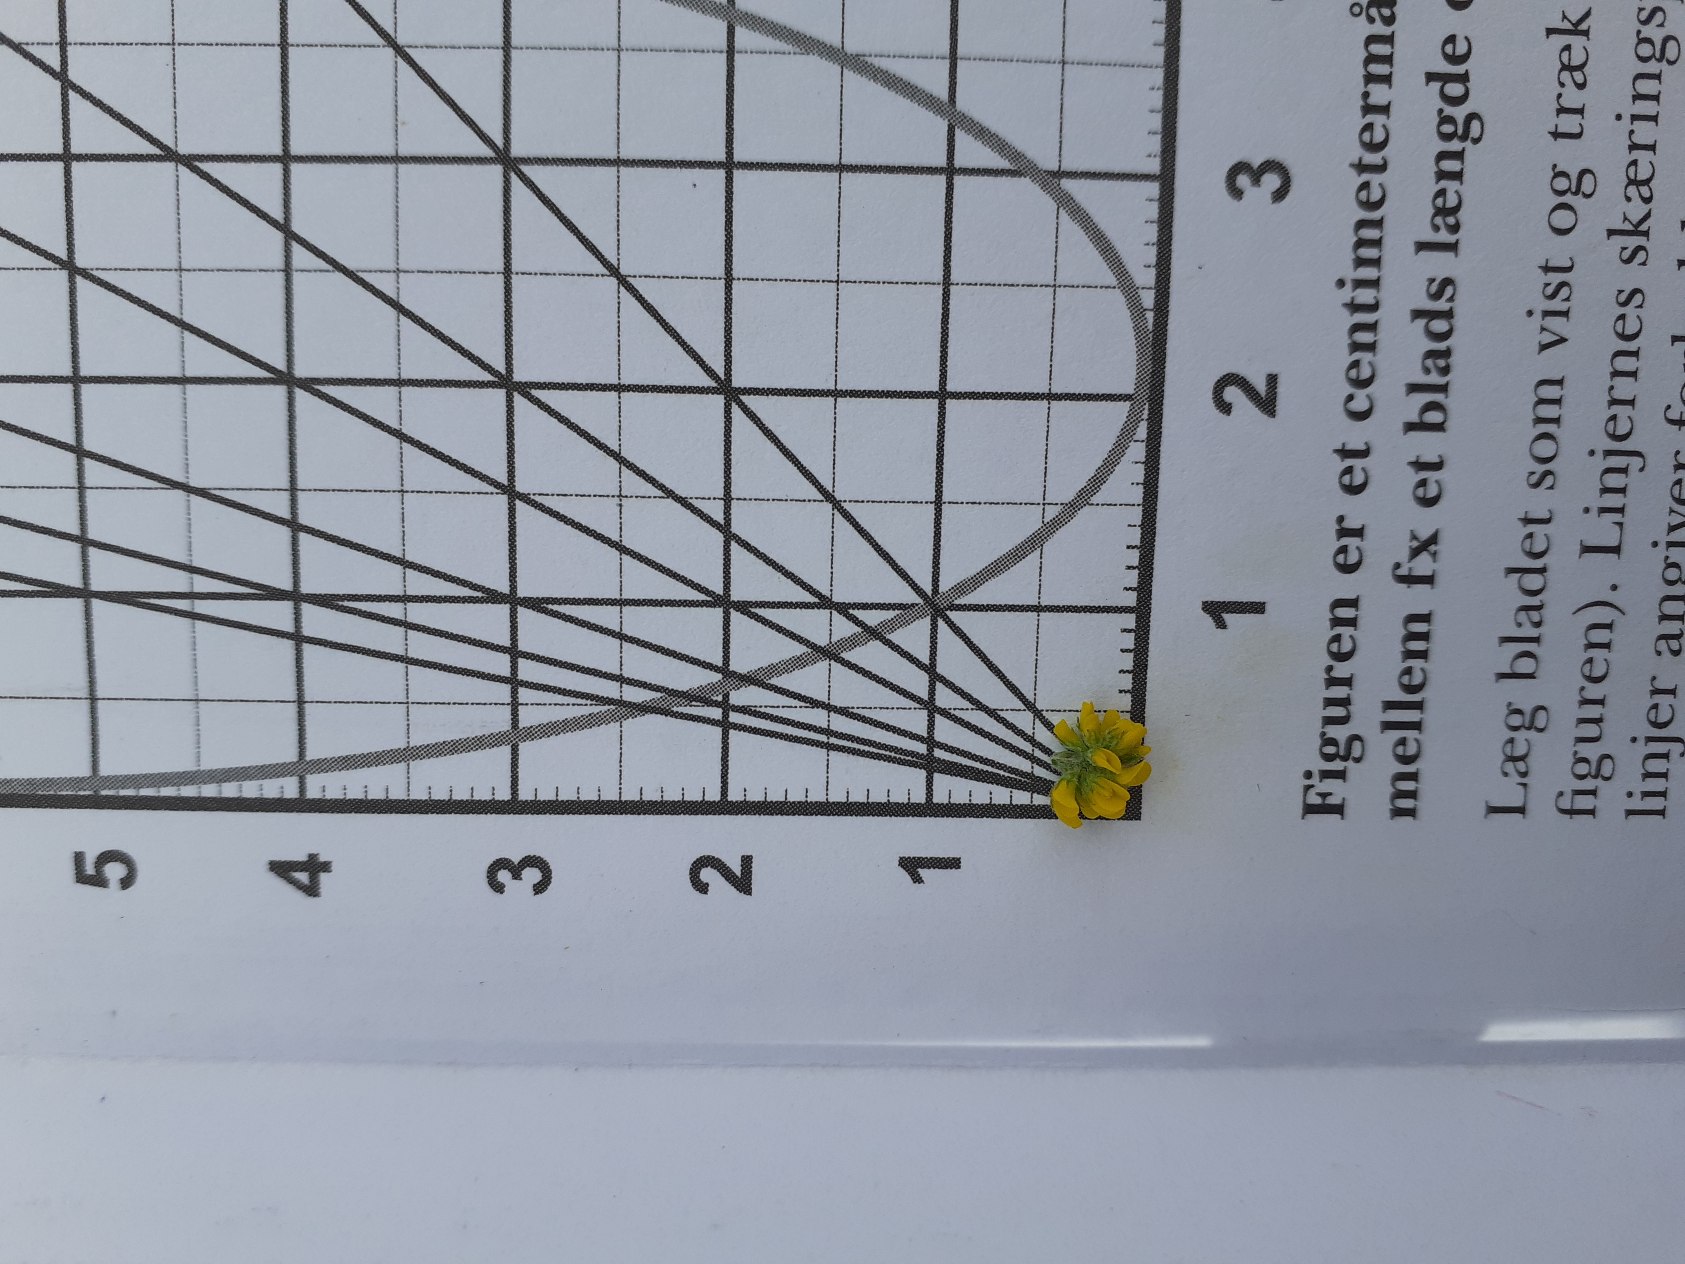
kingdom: Plantae
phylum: Tracheophyta
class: Magnoliopsida
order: Fabales
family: Fabaceae
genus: Medicago
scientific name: Medicago lupulina
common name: Humle-sneglebælg
